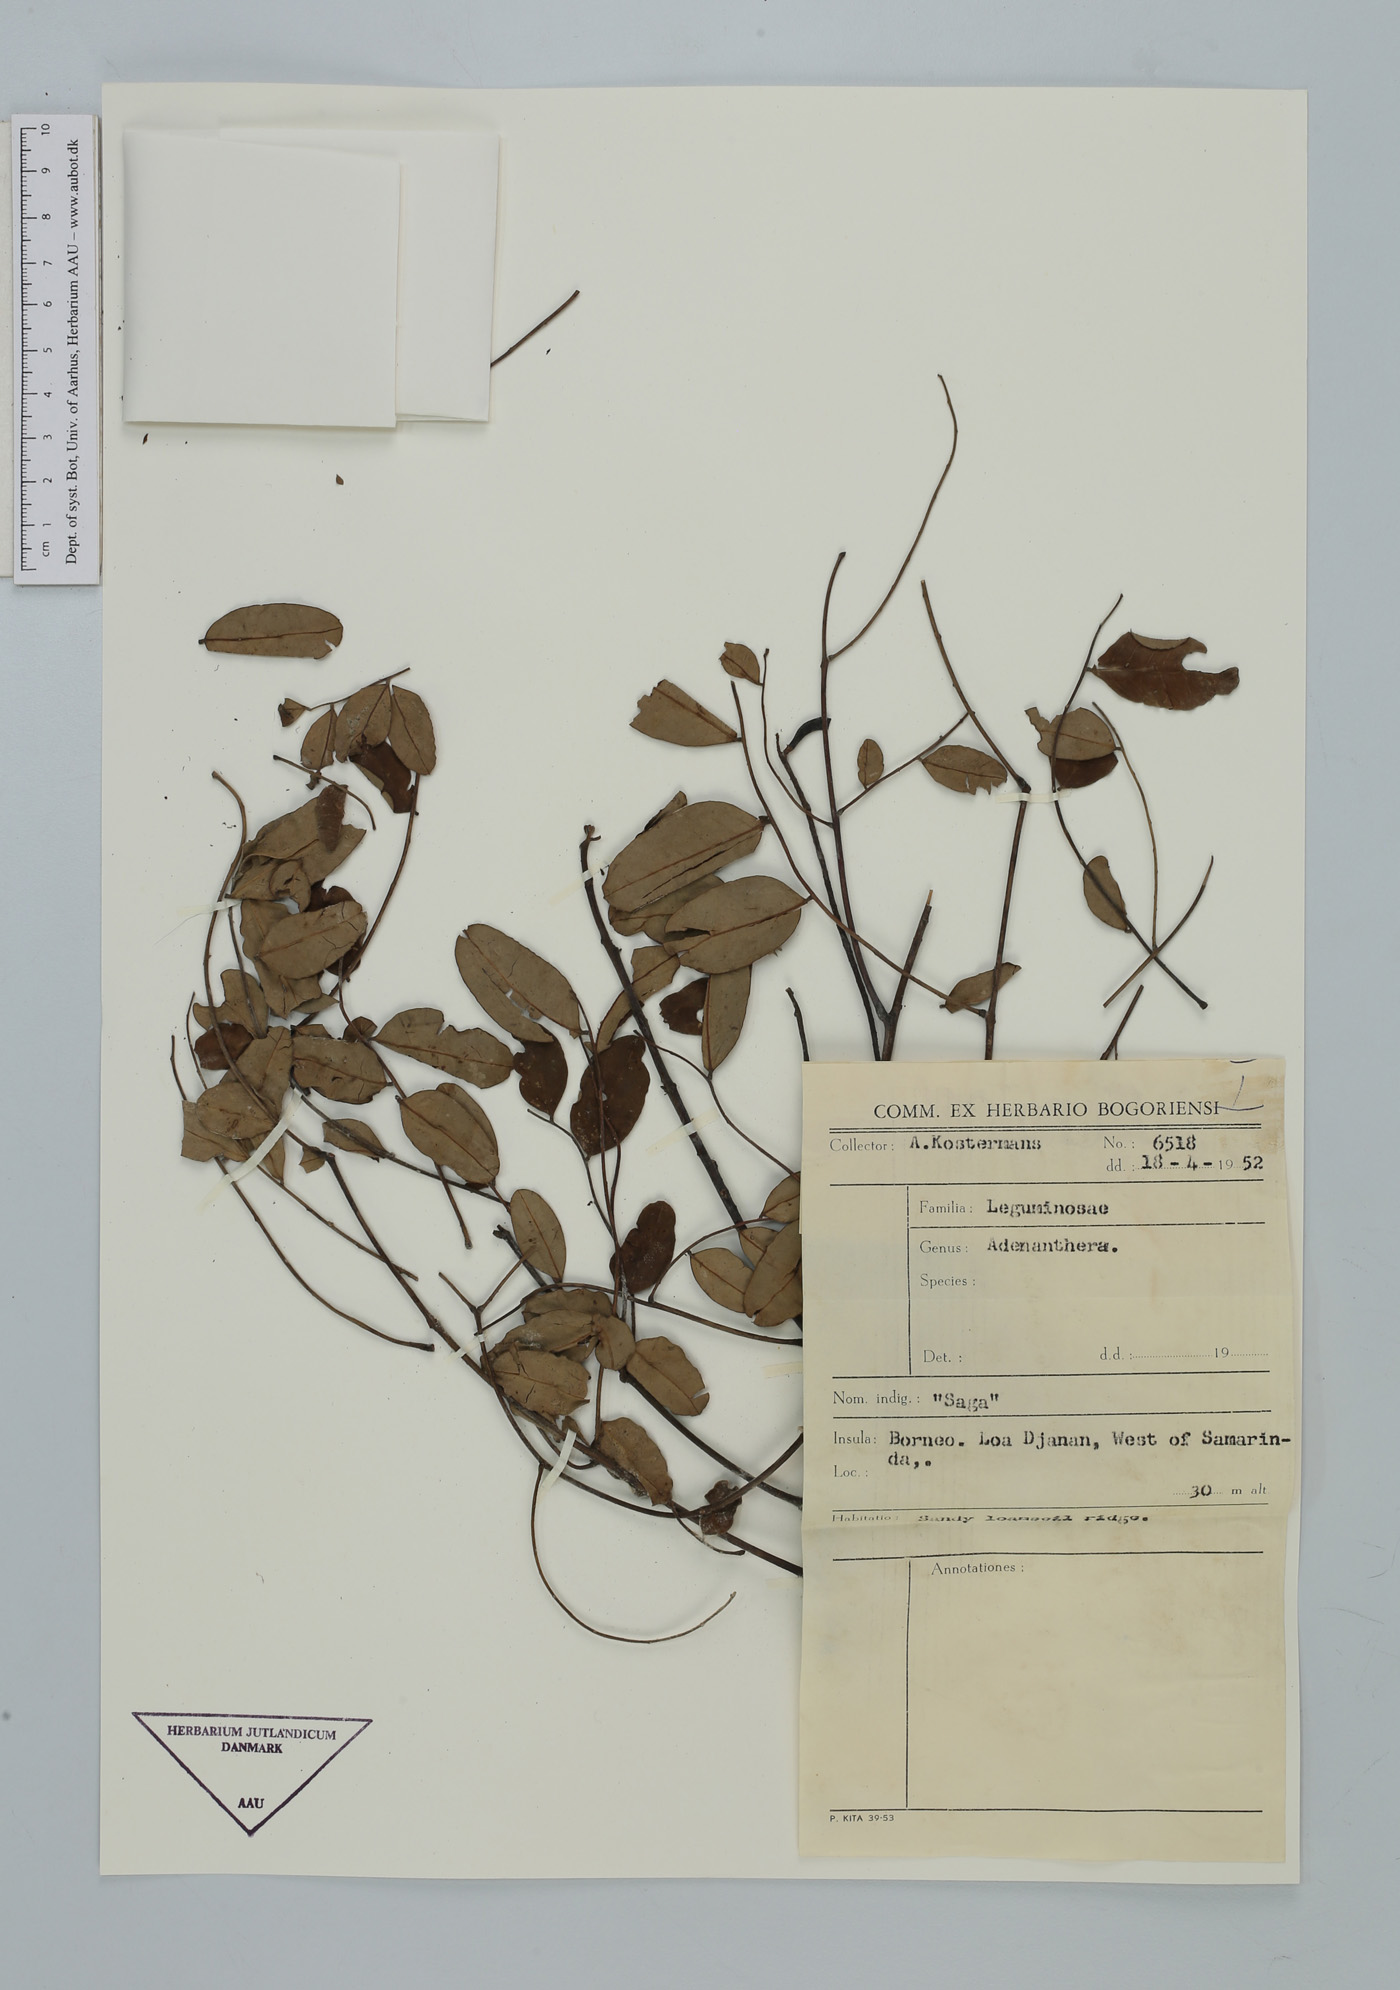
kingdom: Plantae
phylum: Tracheophyta
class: Magnoliopsida
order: Fabales
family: Fabaceae
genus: Adenanthera
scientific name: Adenanthera
